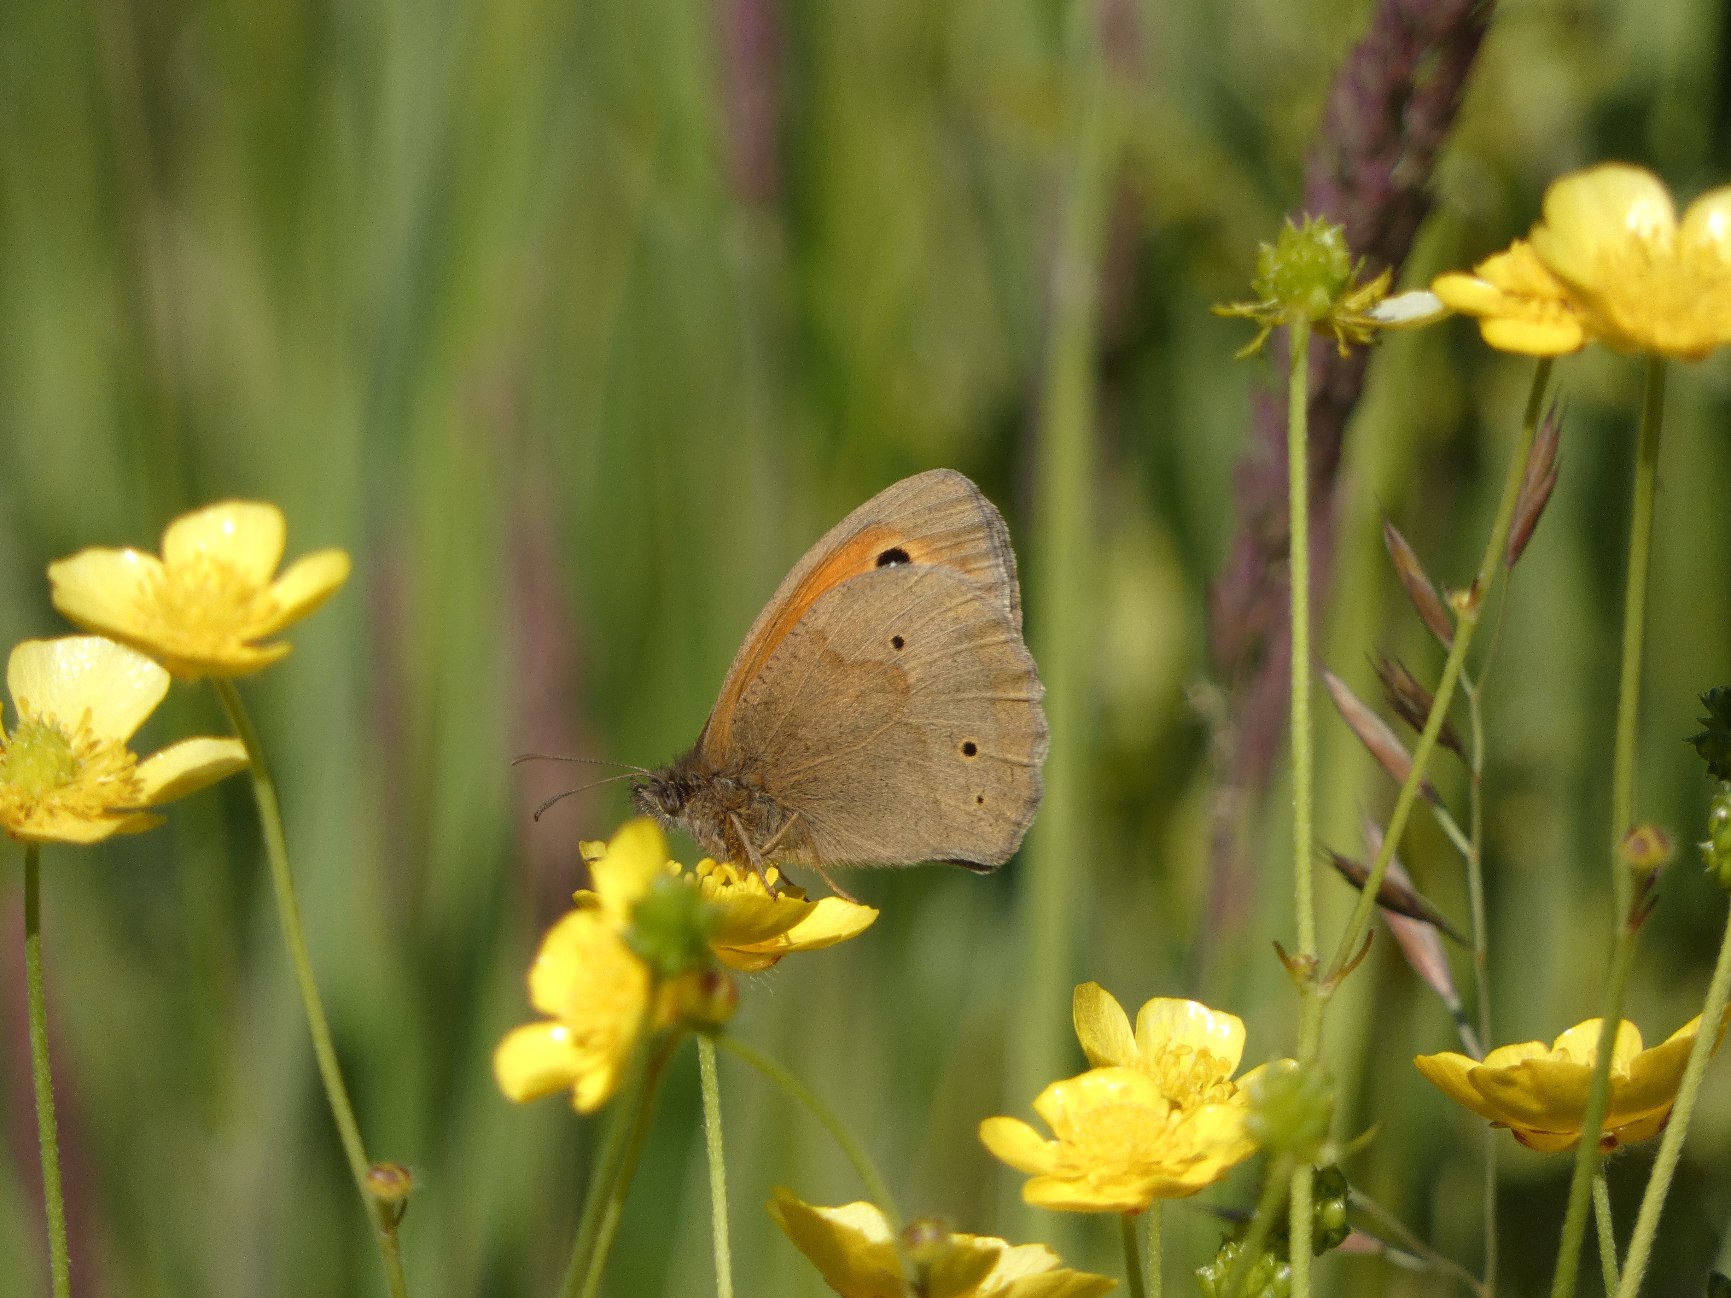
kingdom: Animalia
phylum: Arthropoda
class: Insecta
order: Lepidoptera
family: Nymphalidae
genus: Maniola
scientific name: Maniola jurtina
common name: Græsrandøje
